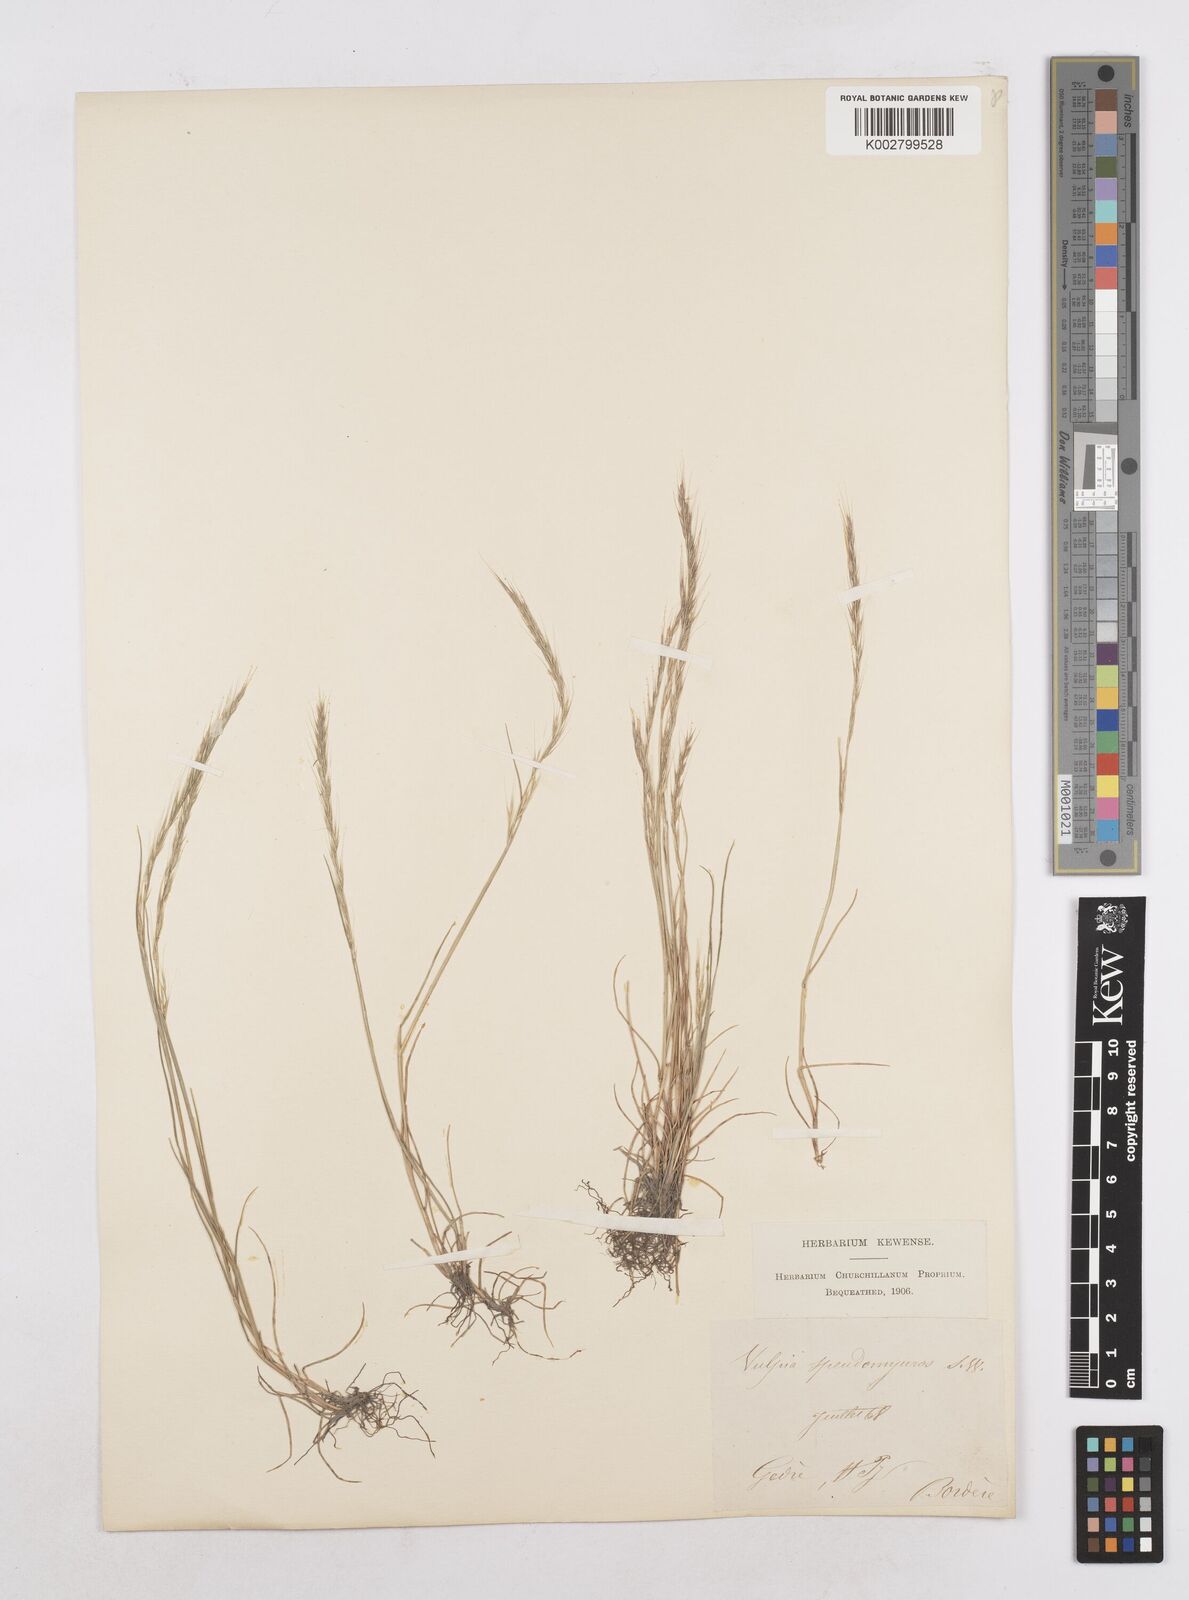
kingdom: Plantae
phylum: Tracheophyta
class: Liliopsida
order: Poales
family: Poaceae
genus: Festuca
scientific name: Festuca myuros
